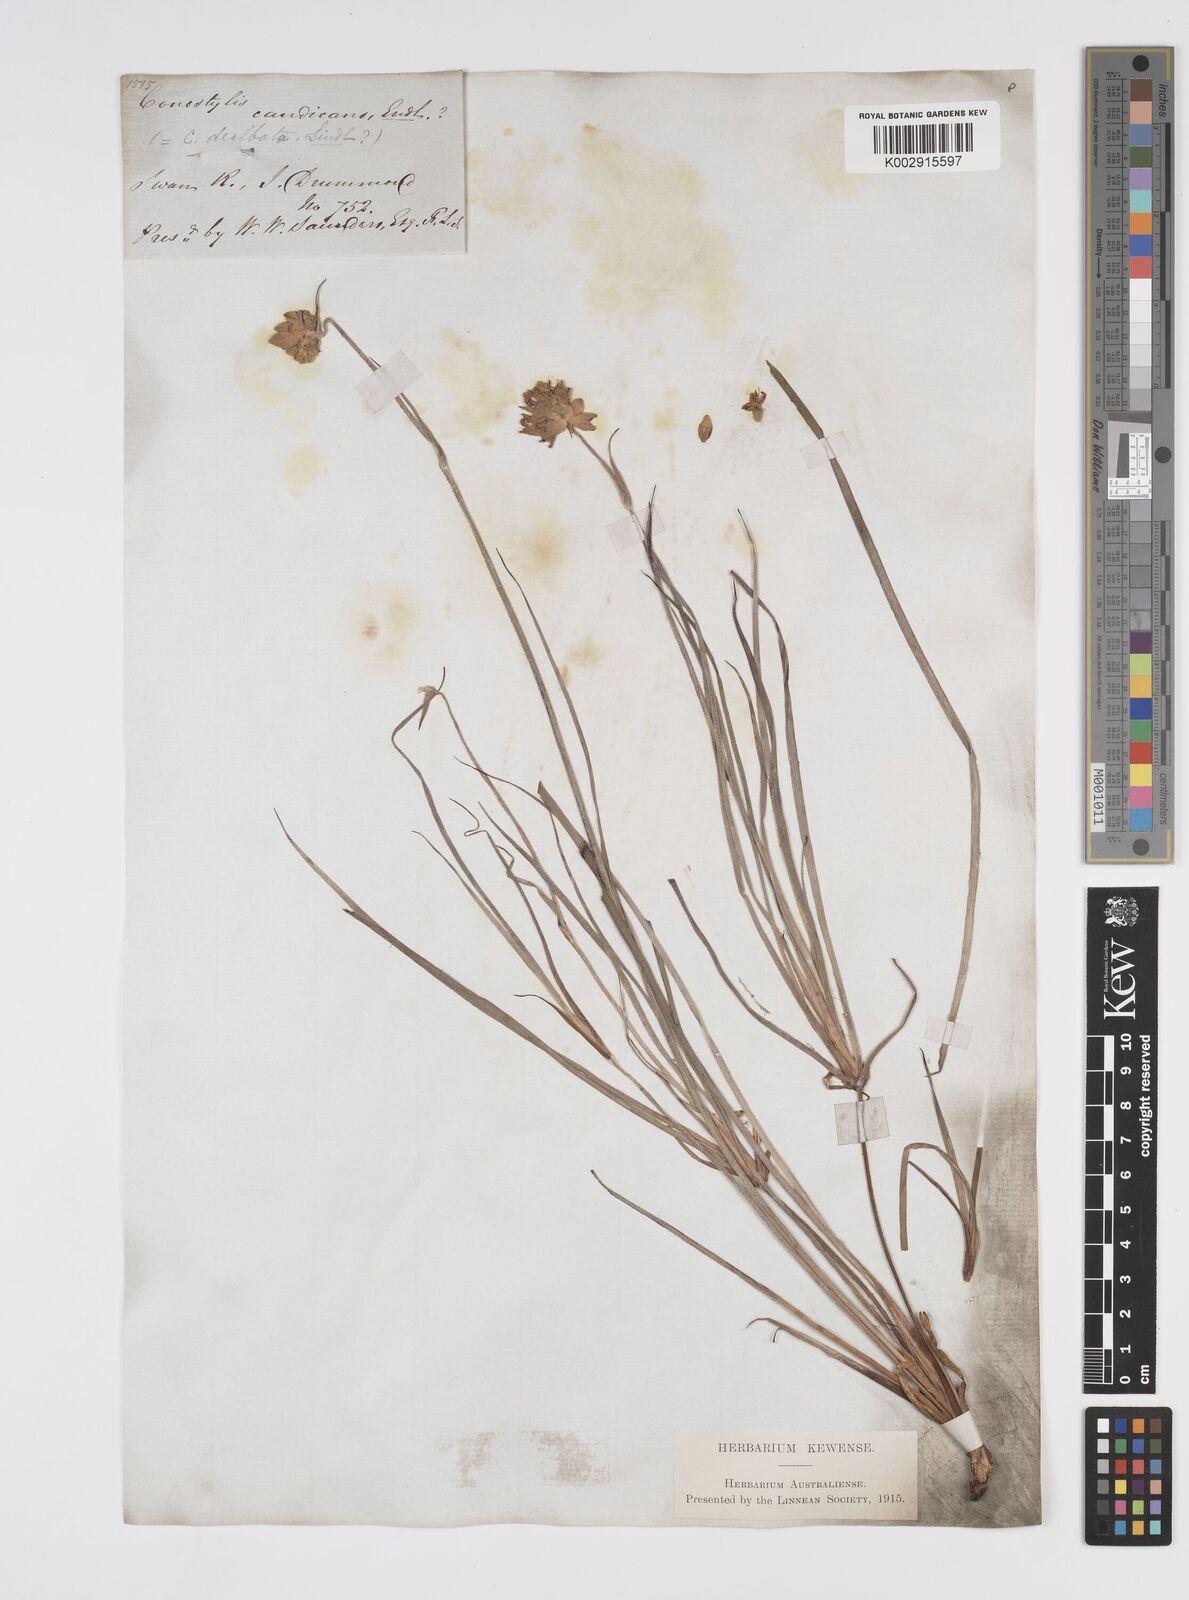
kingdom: Plantae
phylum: Tracheophyta
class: Liliopsida
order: Commelinales
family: Haemodoraceae
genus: Conostylis
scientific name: Conostylis candicans
